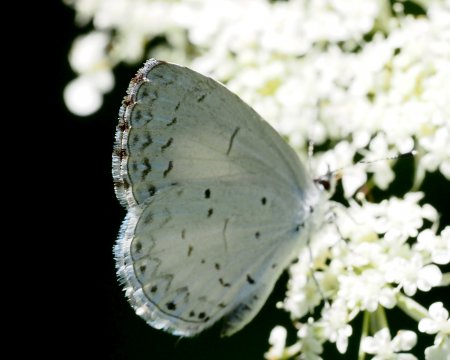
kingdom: Animalia
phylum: Arthropoda
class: Insecta
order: Lepidoptera
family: Lycaenidae
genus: Cyaniris
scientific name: Cyaniris neglecta
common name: Summer Azure
